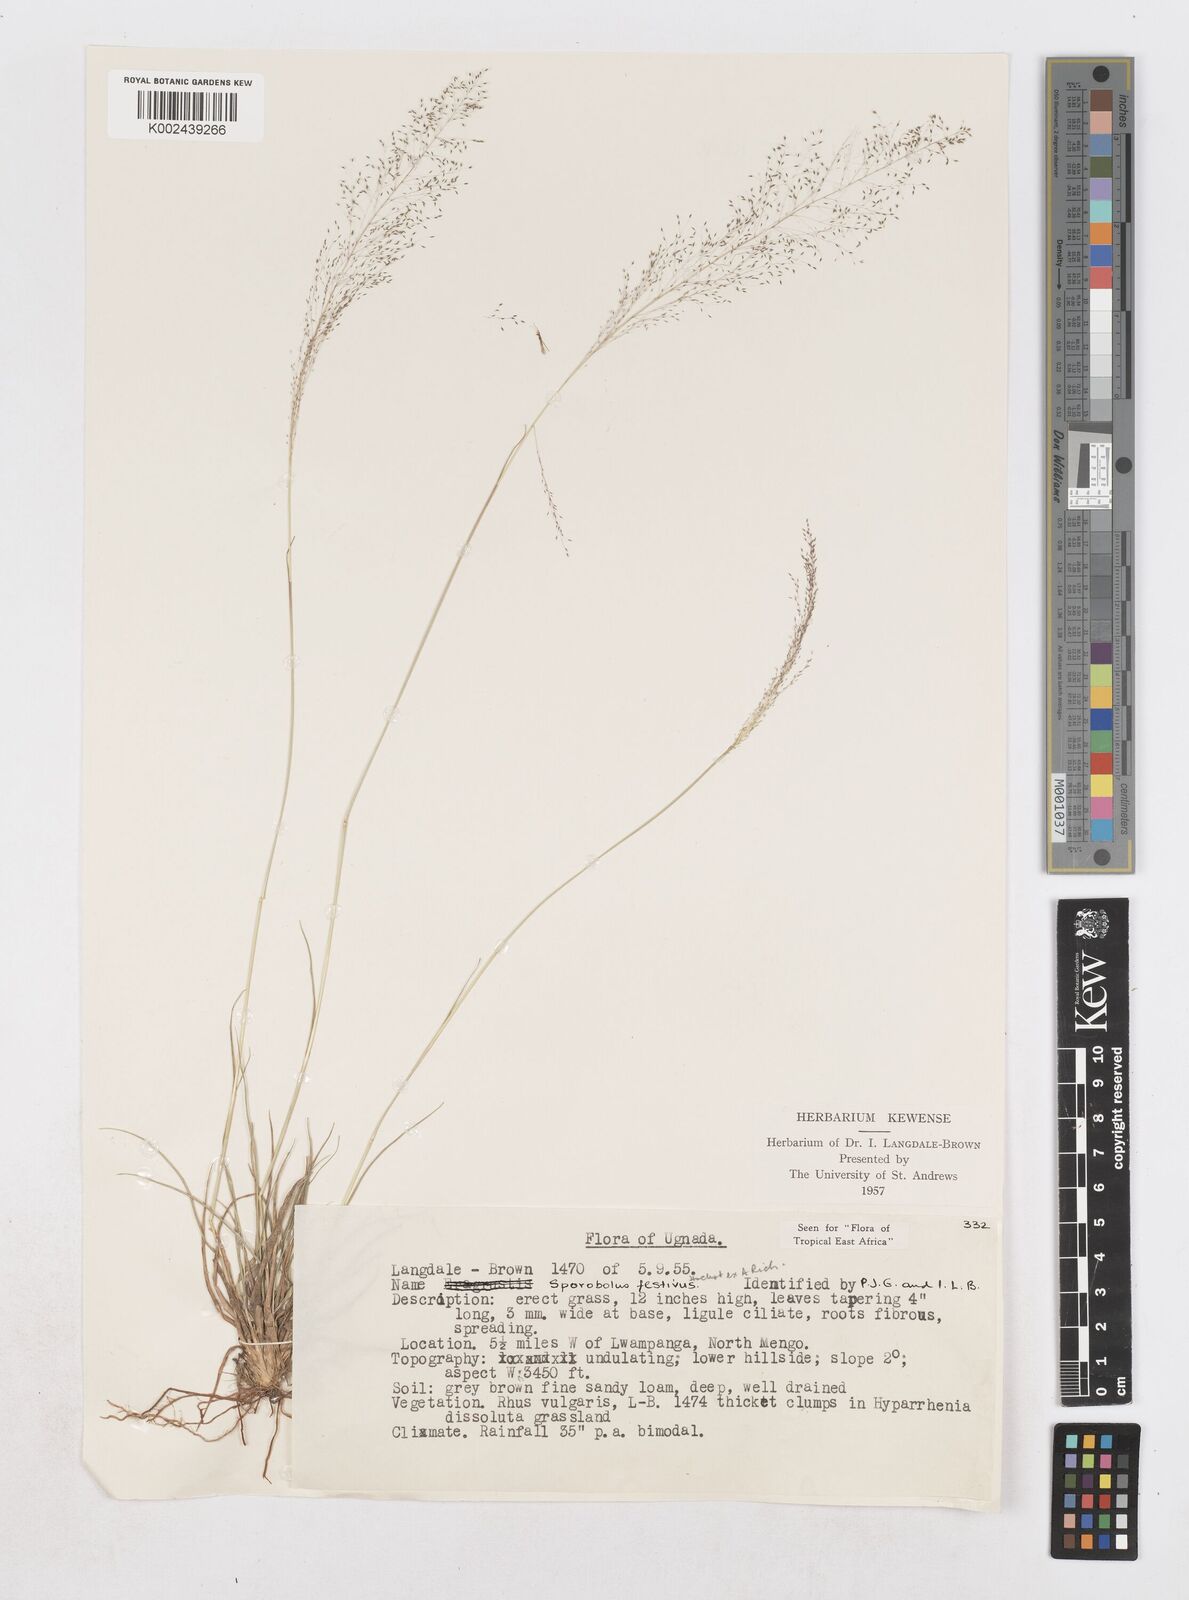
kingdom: Plantae
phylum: Tracheophyta
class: Liliopsida
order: Poales
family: Poaceae
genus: Sporobolus
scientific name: Sporobolus festivus
